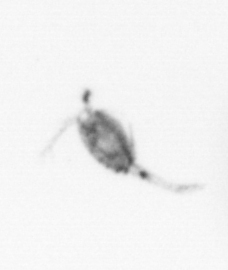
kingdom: Animalia
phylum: Arthropoda
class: Copepoda
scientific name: Copepoda
